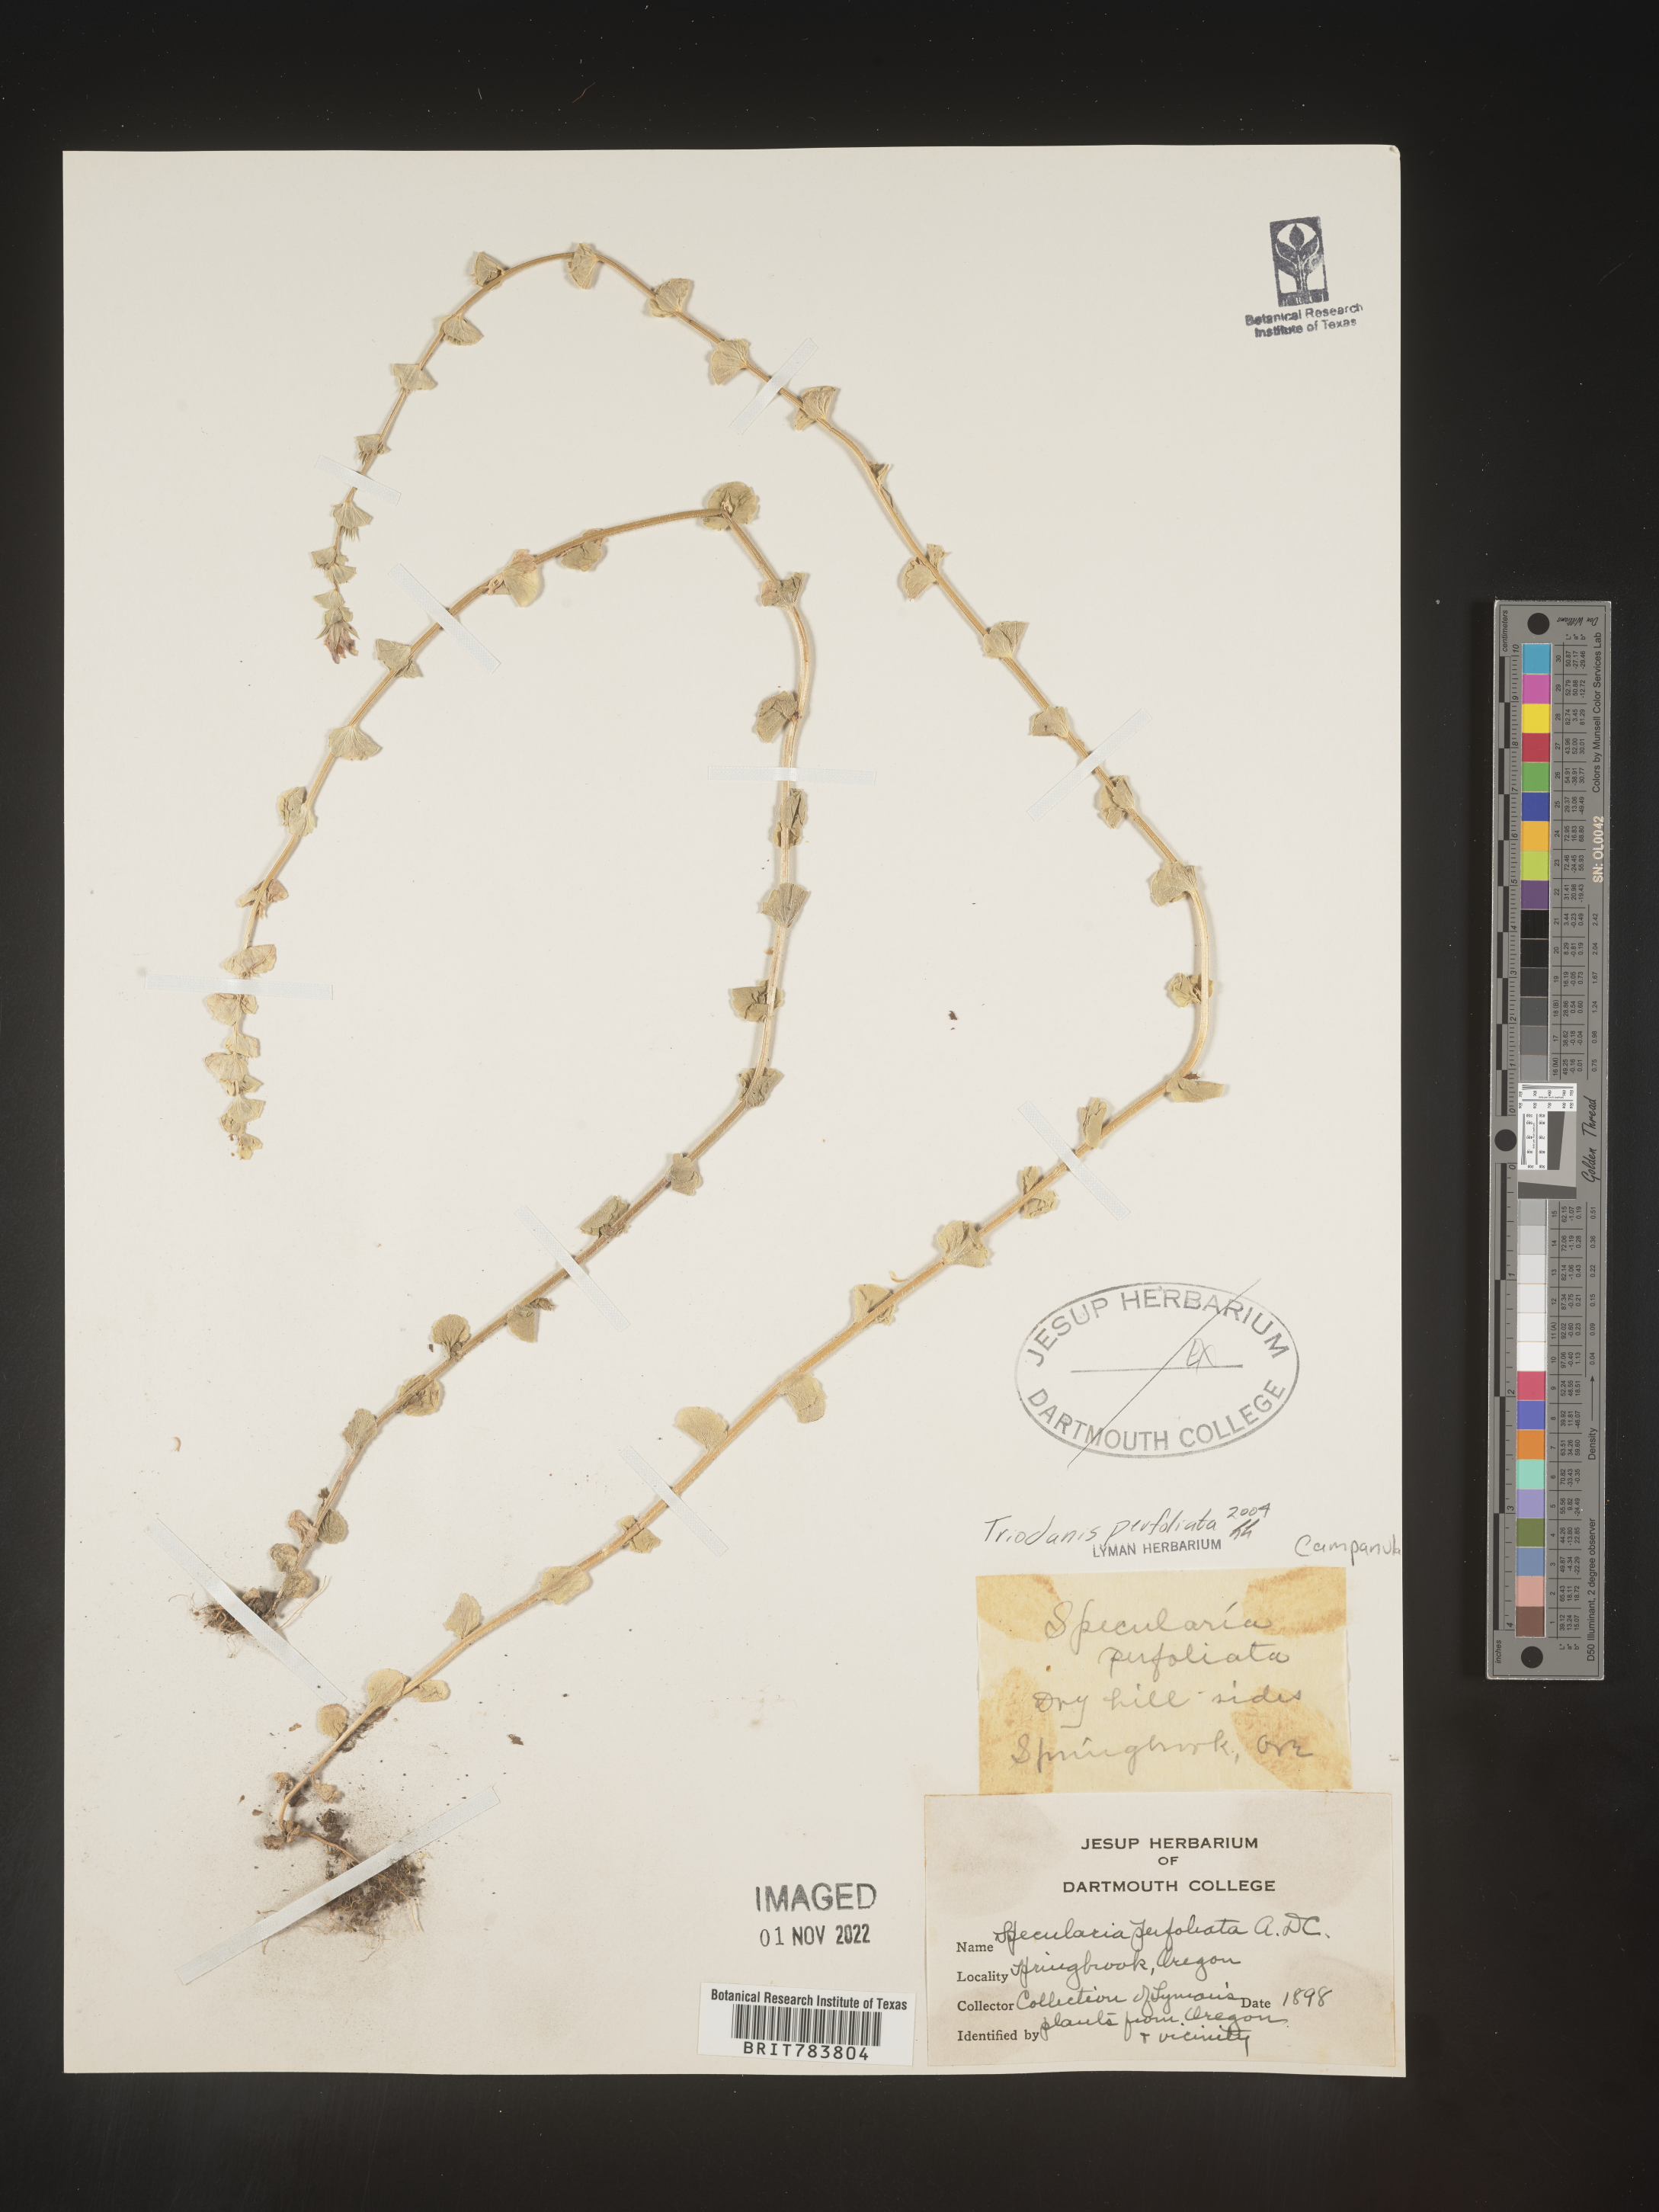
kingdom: Plantae
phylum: Tracheophyta
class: Magnoliopsida
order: Asterales
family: Campanulaceae
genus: Triodanis
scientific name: Triodanis perfoliata
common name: Clasping venus' looking-glass
